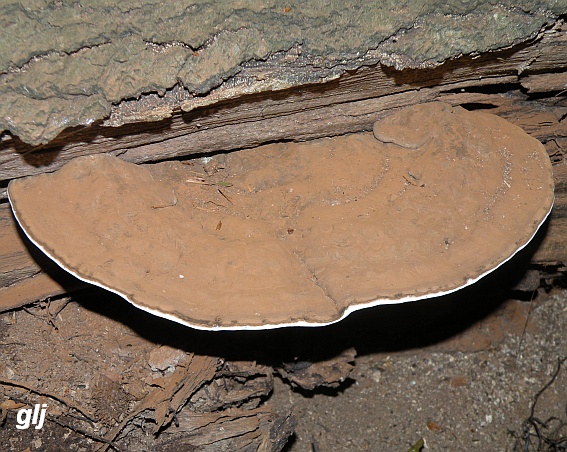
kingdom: Fungi
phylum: Basidiomycota
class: Agaricomycetes
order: Polyporales
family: Polyporaceae
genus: Ganoderma
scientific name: Ganoderma applanatum
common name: flad lakporesvamp
